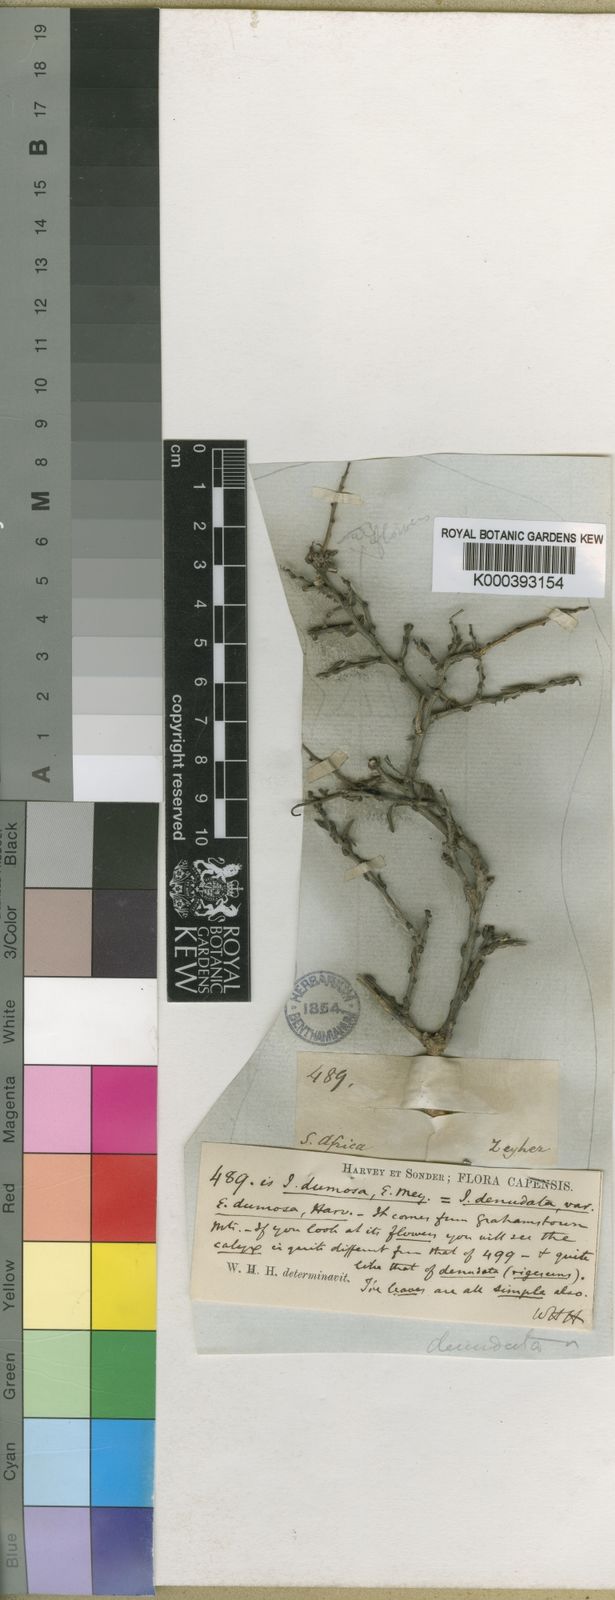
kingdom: Plantae
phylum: Tracheophyta
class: Magnoliopsida
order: Fabales
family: Fabaceae
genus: Indigofera
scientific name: Indigofera
